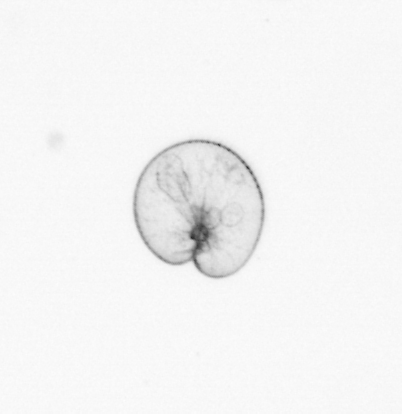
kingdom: Chromista
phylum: Myzozoa
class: Dinophyceae
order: Noctilucales
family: Noctilucaceae
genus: Noctiluca
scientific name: Noctiluca scintillans
